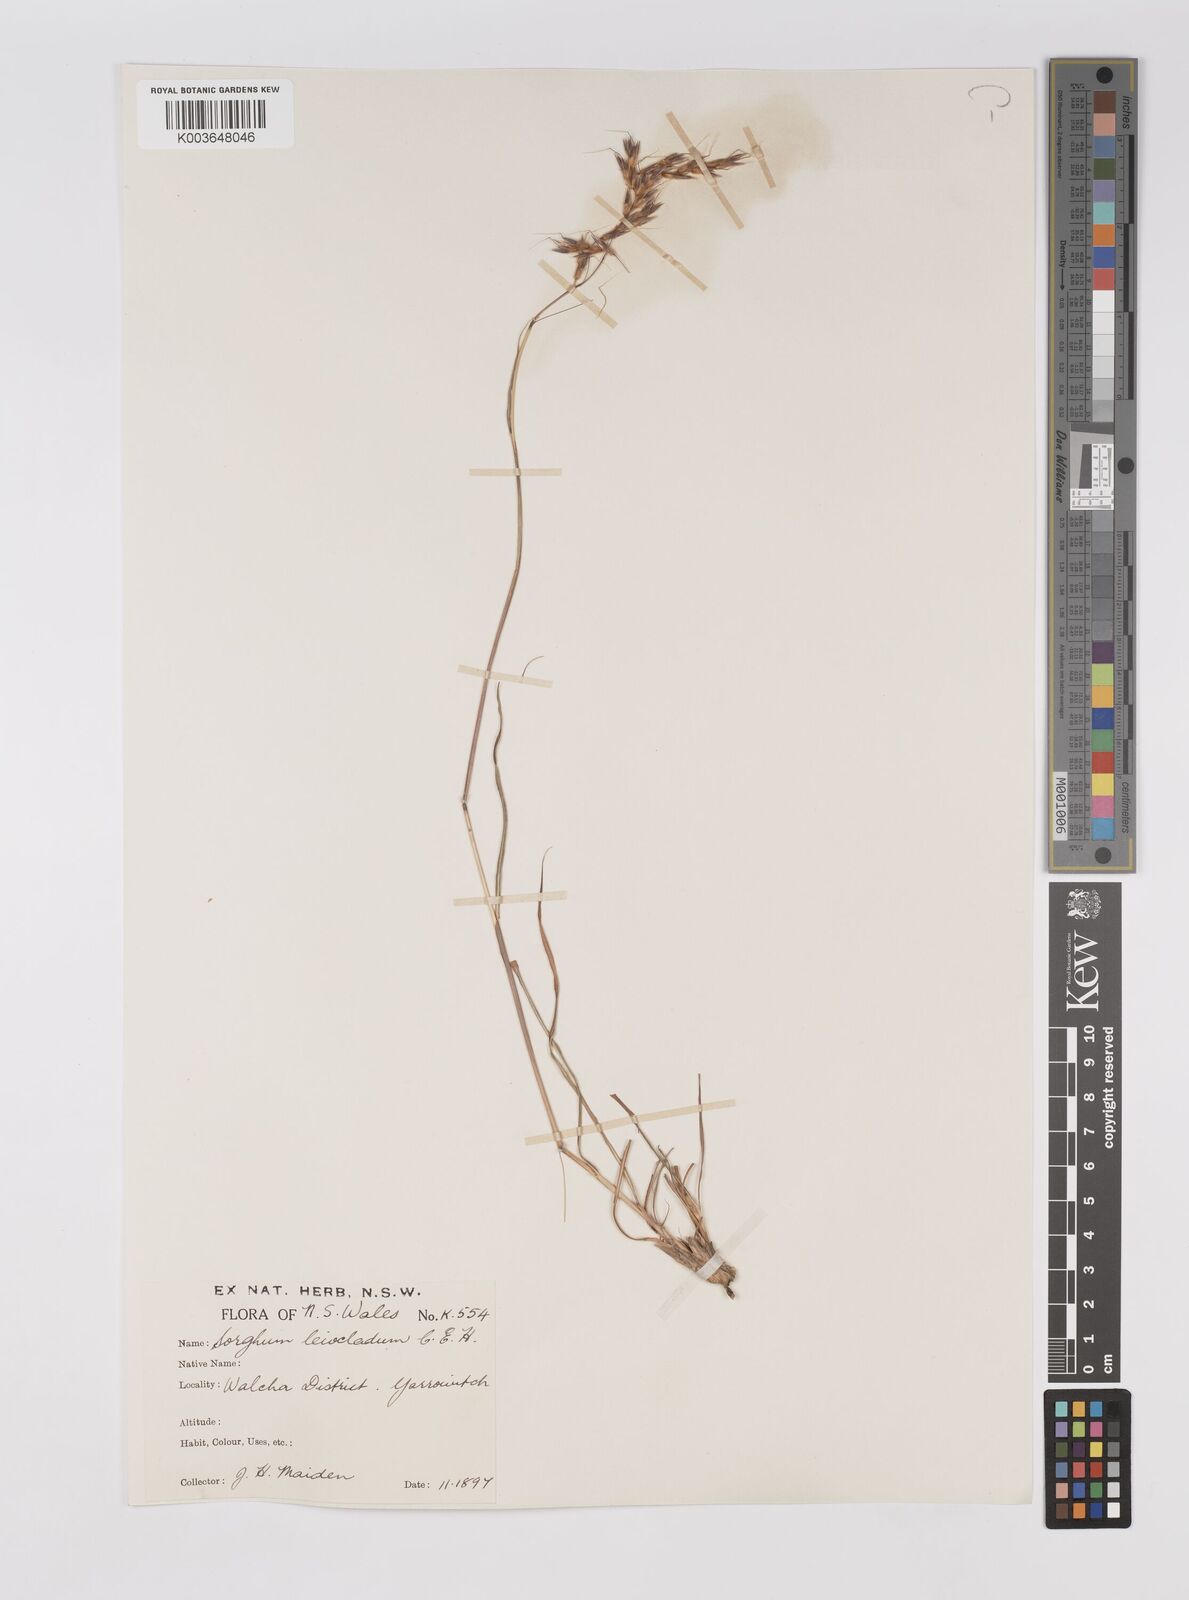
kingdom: Plantae
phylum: Tracheophyta
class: Liliopsida
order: Poales
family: Poaceae
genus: Sarga
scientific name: Sarga leioclada
